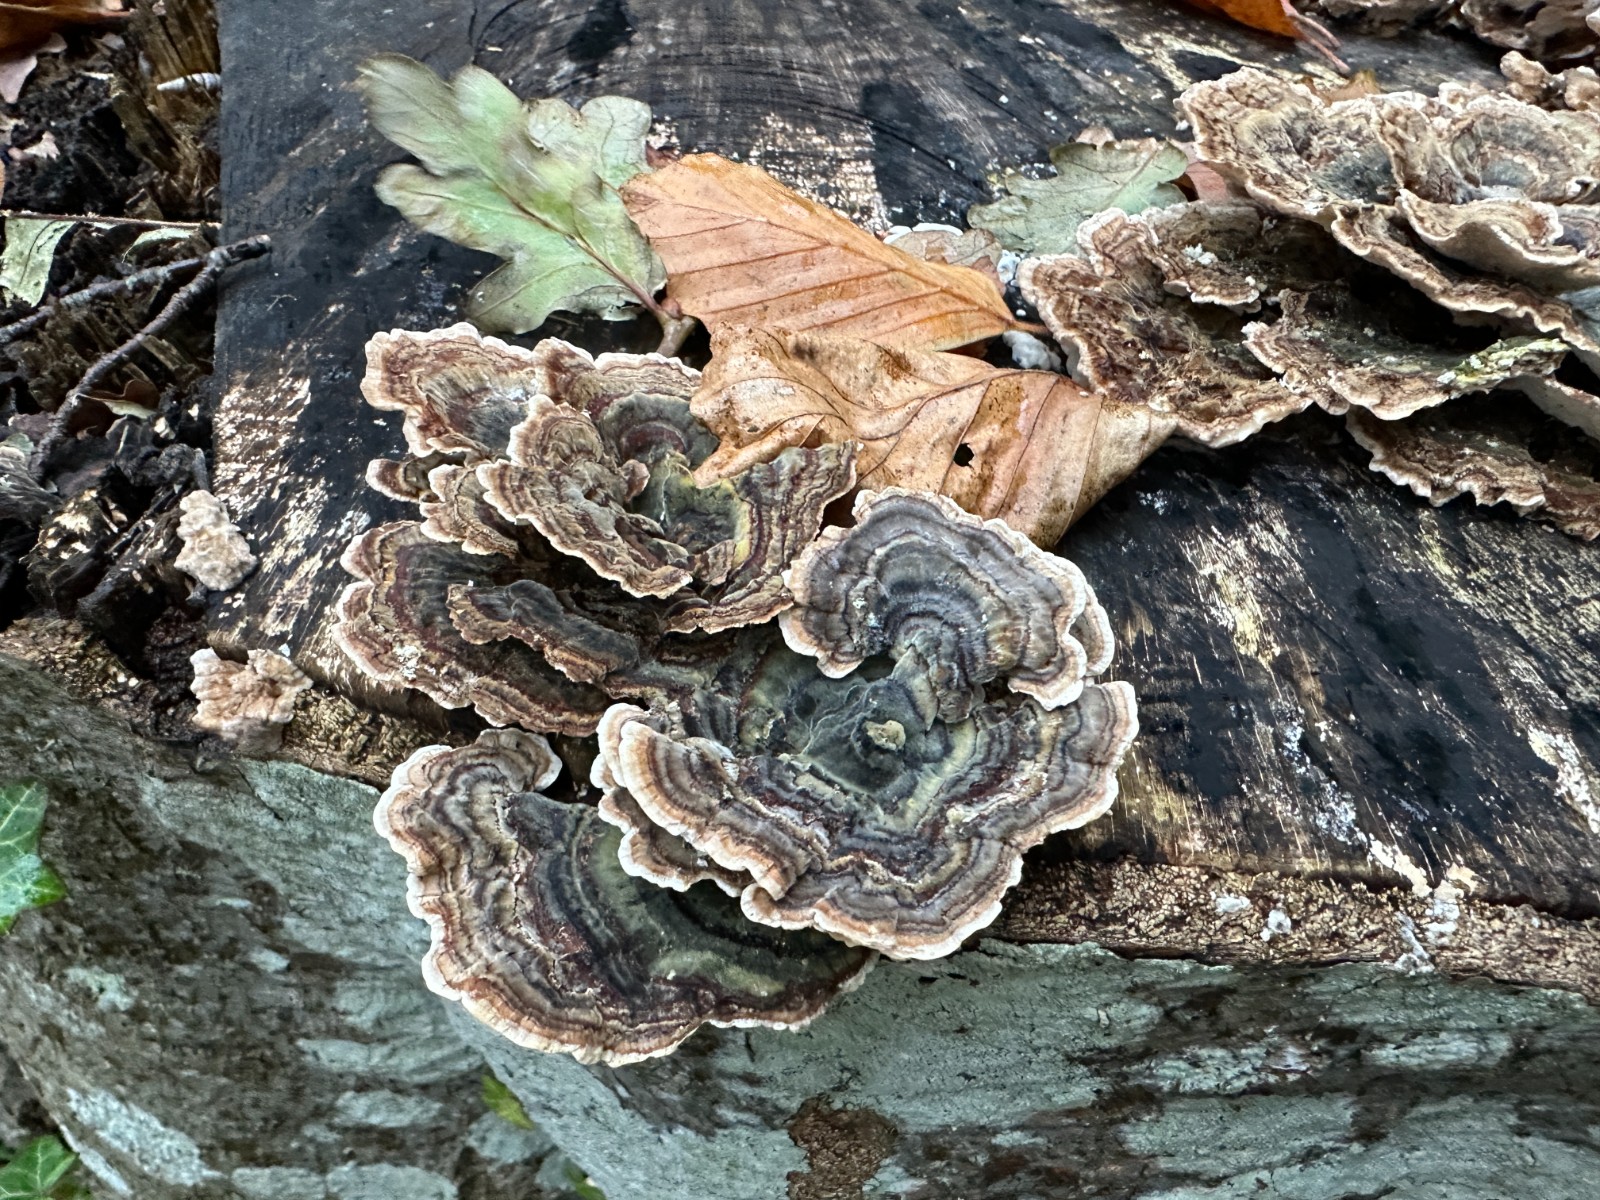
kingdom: Fungi
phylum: Basidiomycota
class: Agaricomycetes
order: Polyporales
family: Polyporaceae
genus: Trametes
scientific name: Trametes versicolor
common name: broget læderporesvamp
